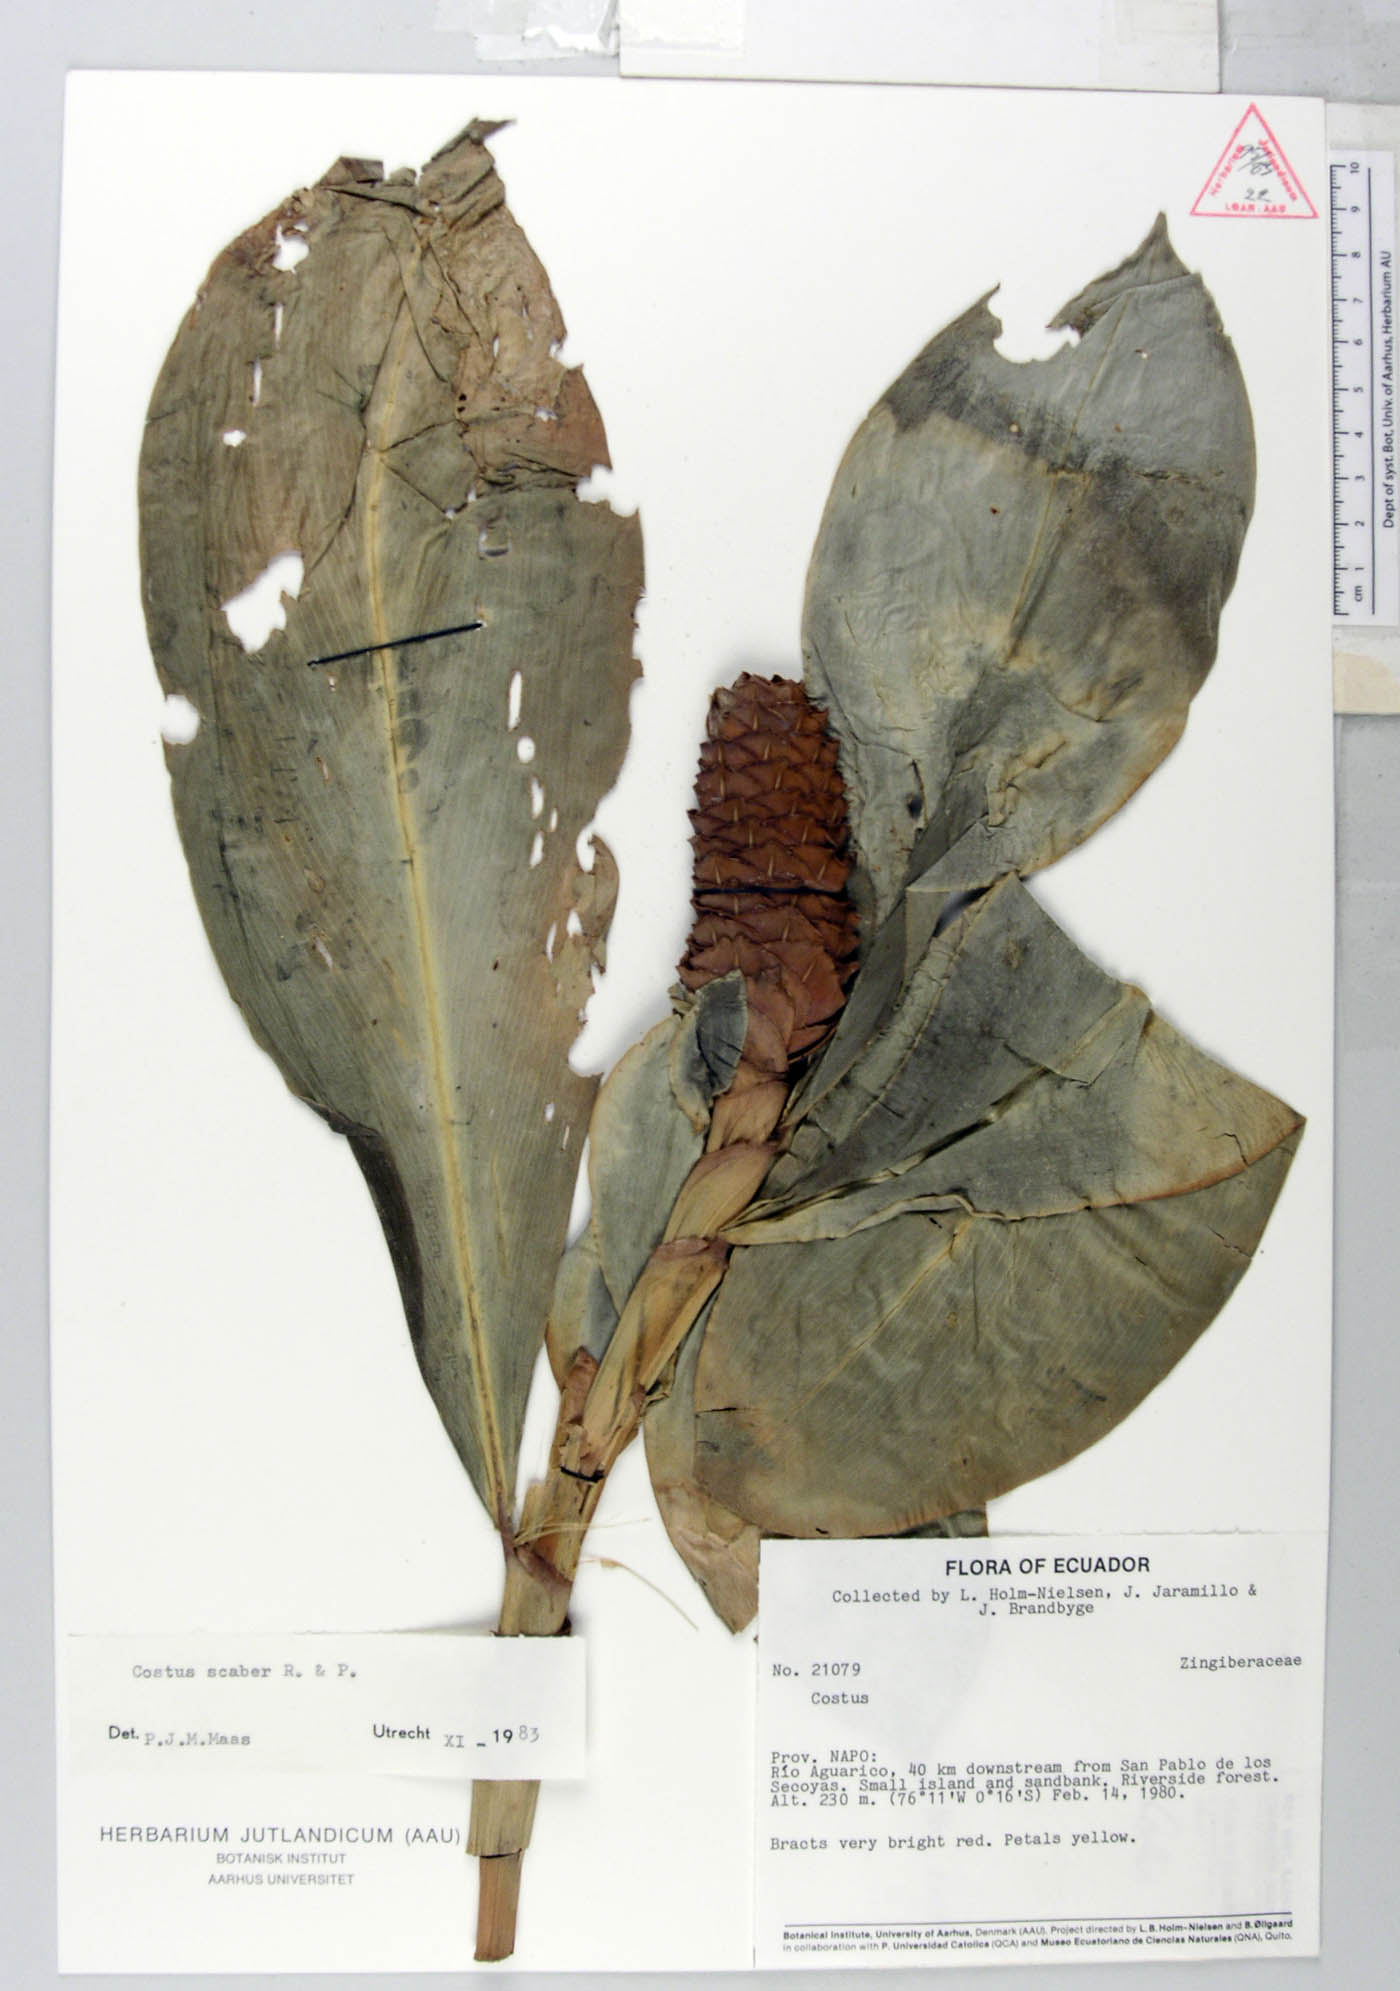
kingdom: Plantae
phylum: Tracheophyta
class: Liliopsida
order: Zingiberales
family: Costaceae
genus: Costus
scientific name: Costus scaber
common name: Spiral head ginger
